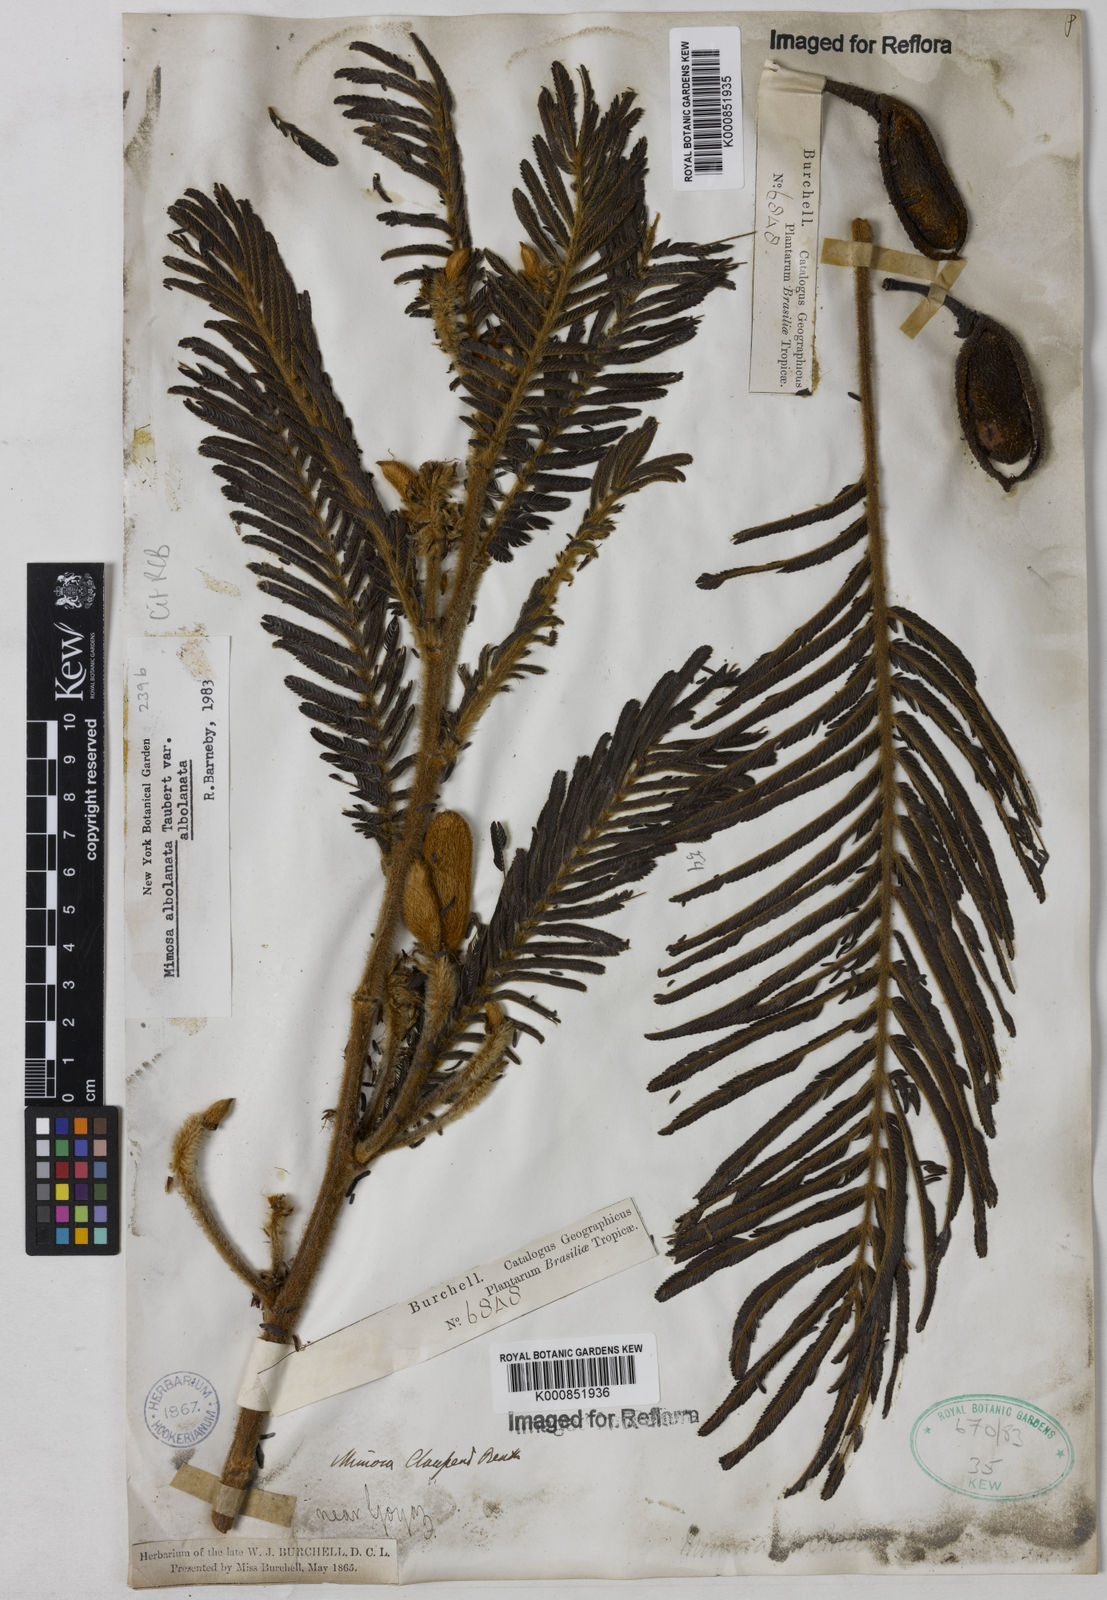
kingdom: Plantae
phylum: Tracheophyta
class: Magnoliopsida
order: Fabales
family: Fabaceae
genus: Mimosa
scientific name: Mimosa albolanata
